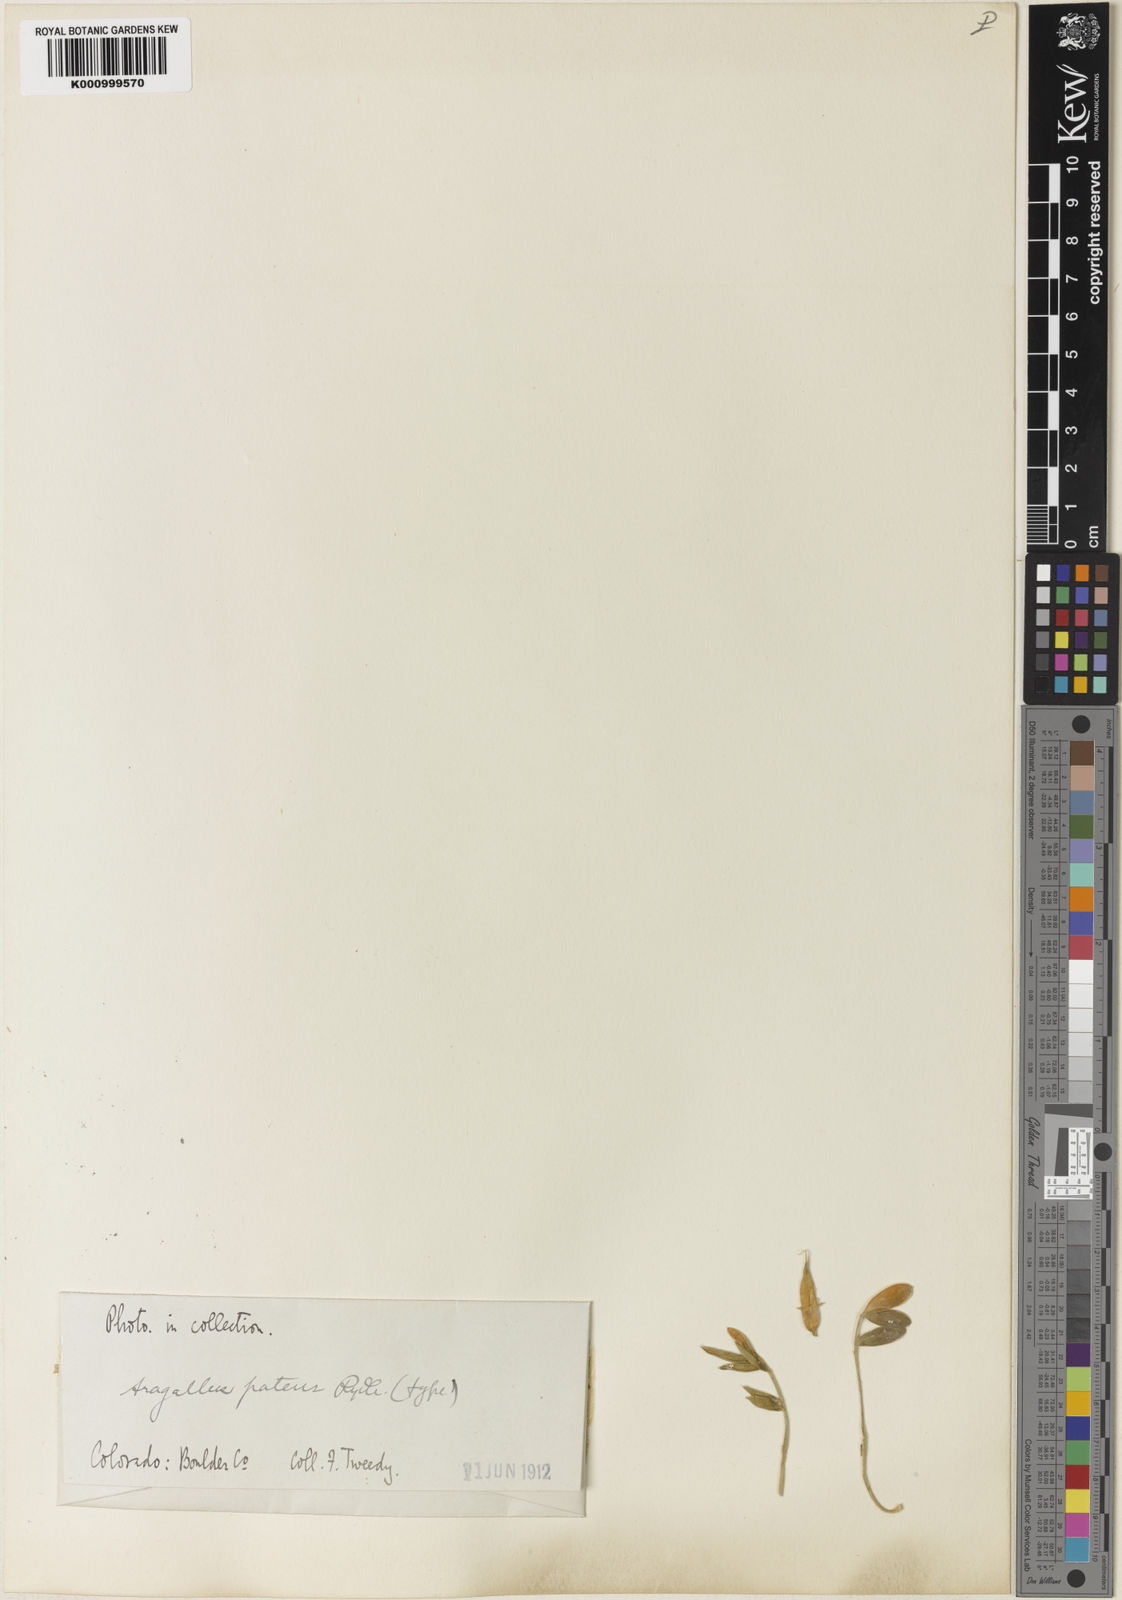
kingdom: Plantae
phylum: Tracheophyta
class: Magnoliopsida
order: Fabales
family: Fabaceae
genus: Astragalus
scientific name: Astragalus
